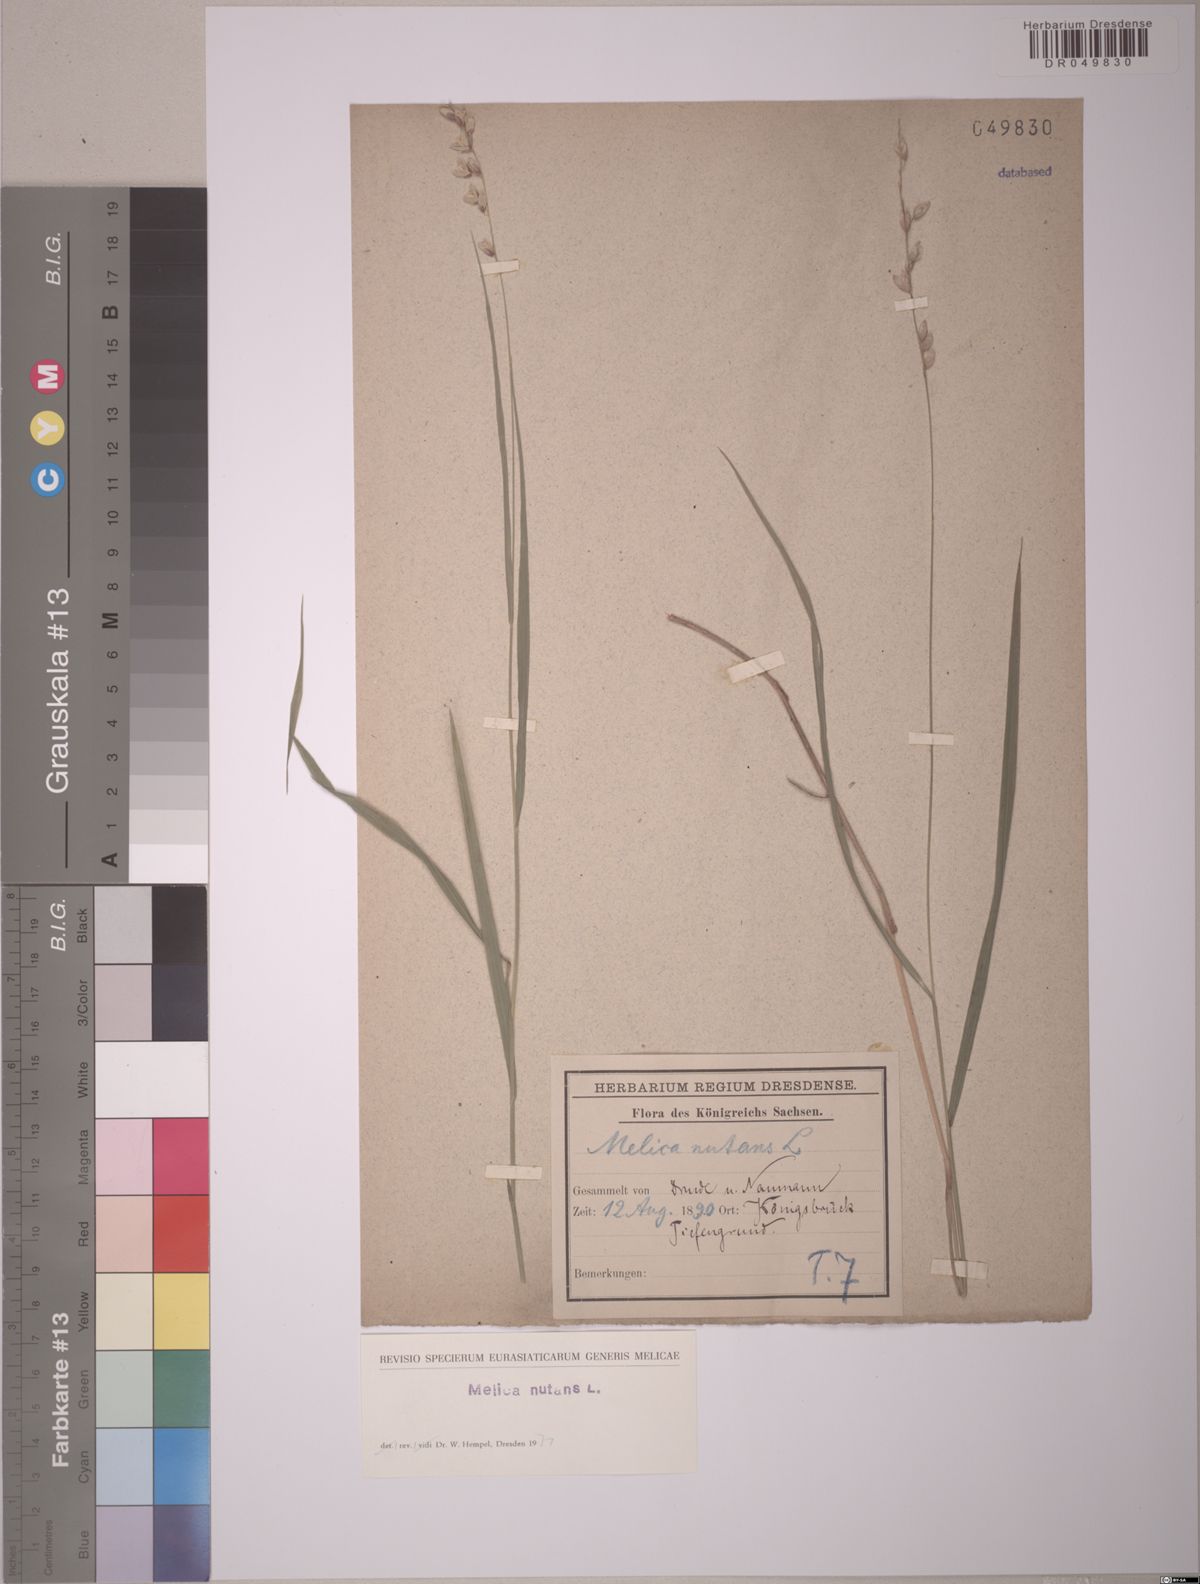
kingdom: Plantae
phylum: Tracheophyta
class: Liliopsida
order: Poales
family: Poaceae
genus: Melica
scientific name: Melica nutans
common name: Mountain melick
